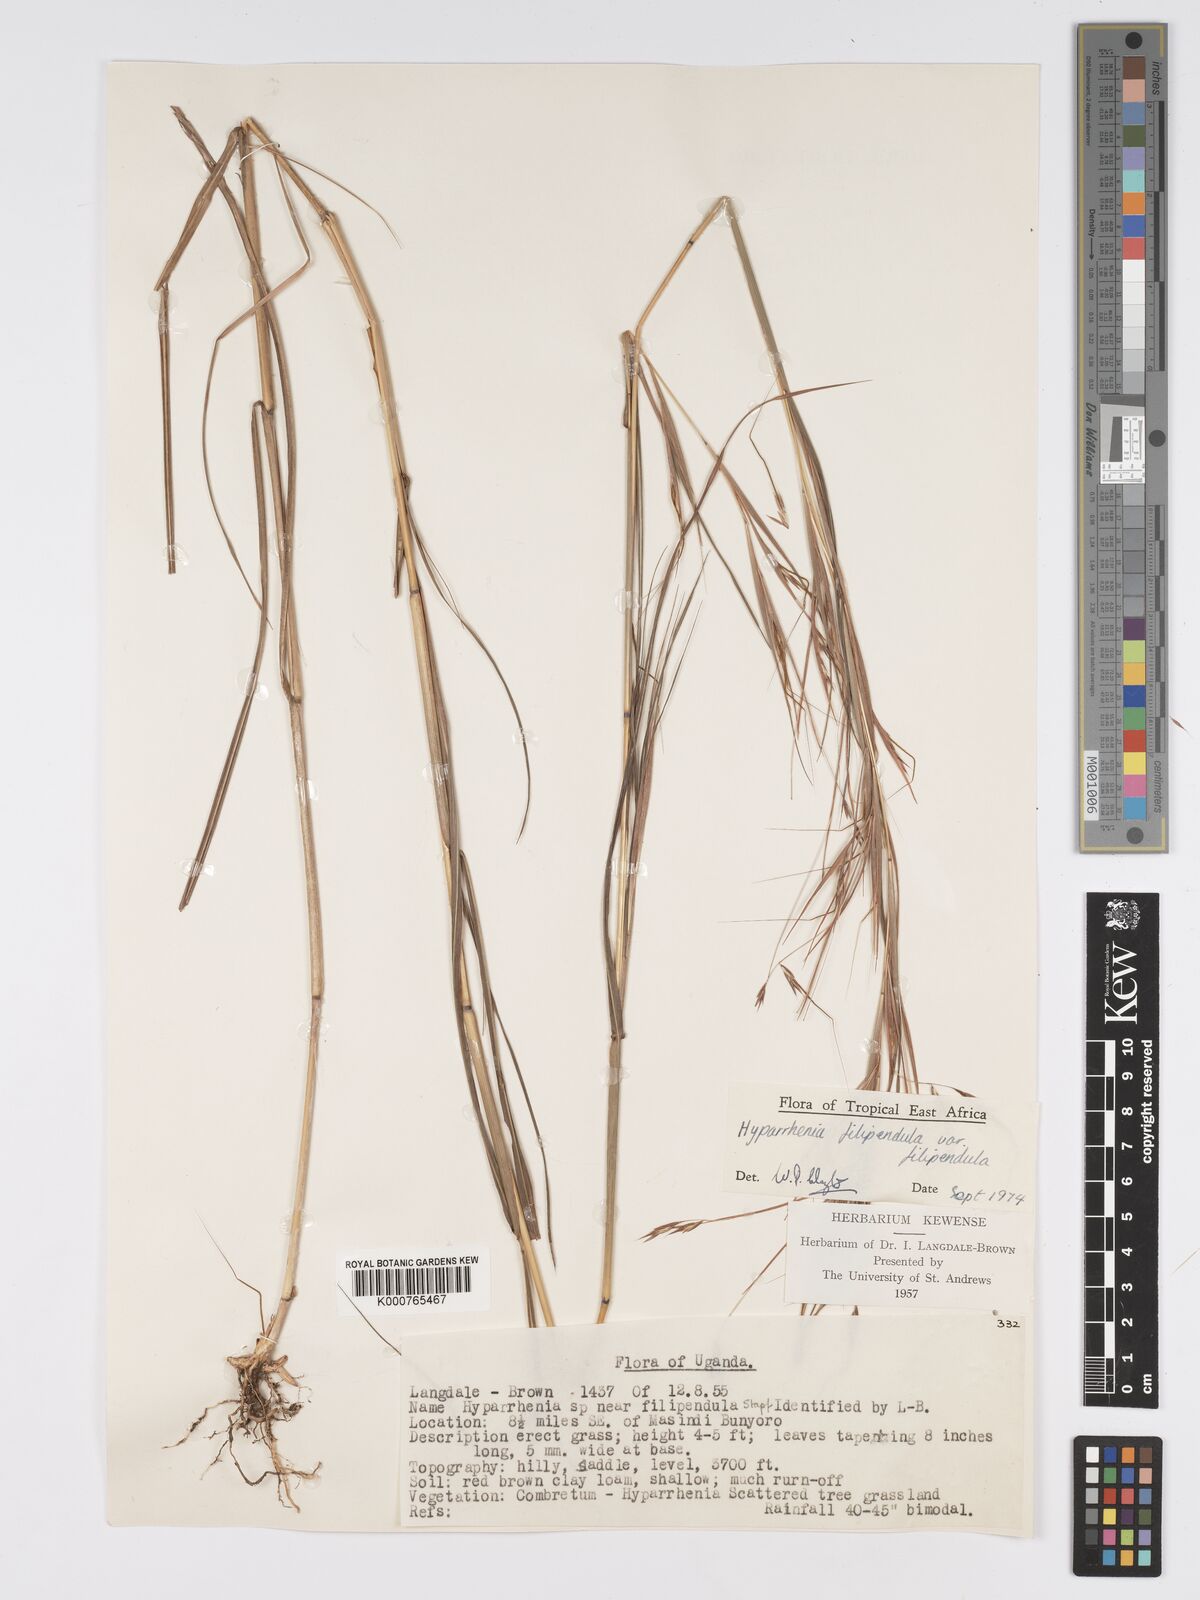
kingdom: Plantae
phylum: Tracheophyta
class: Liliopsida
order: Poales
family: Poaceae
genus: Hyparrhenia
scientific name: Hyparrhenia filipendula
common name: Tambookie grass
